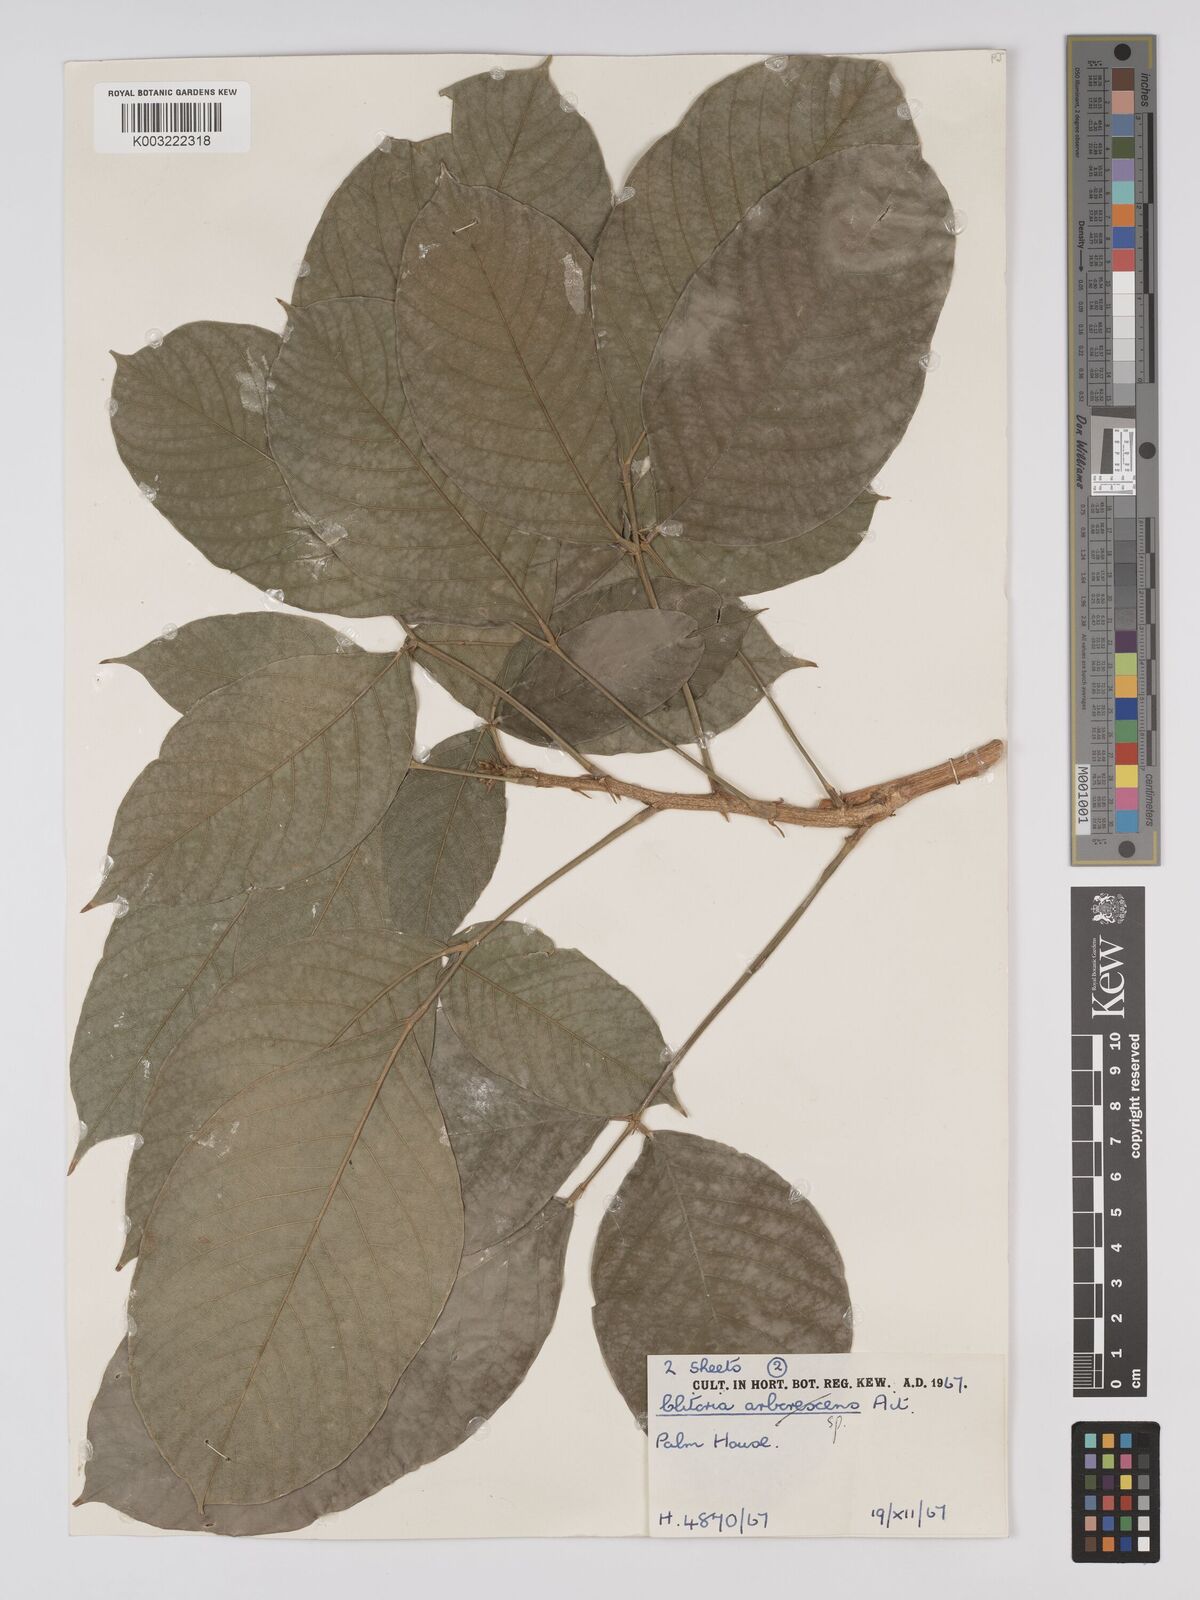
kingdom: Plantae
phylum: Tracheophyta
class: Magnoliopsida
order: Fabales
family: Fabaceae
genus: Clitoria
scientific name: Clitoria arborescens
